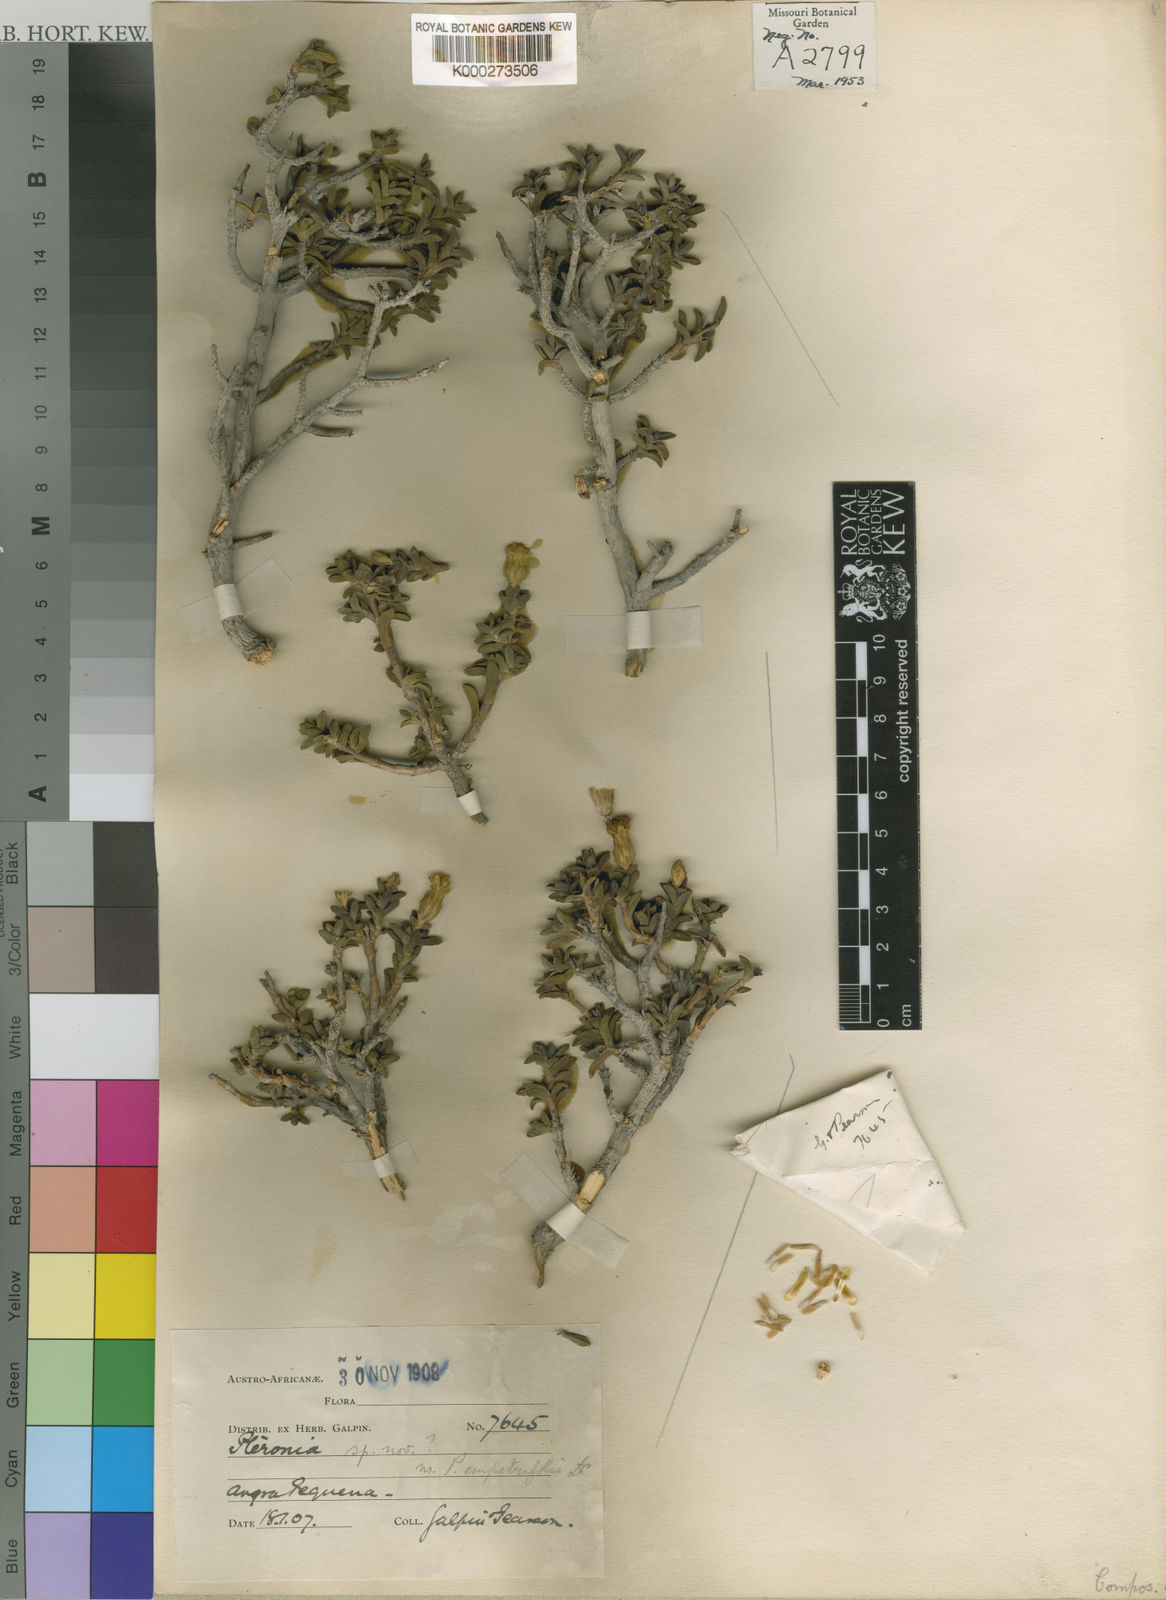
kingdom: Plantae
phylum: Tracheophyta
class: Magnoliopsida
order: Asterales
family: Asteraceae
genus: Pteronia
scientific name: Pteronia spinulosa
